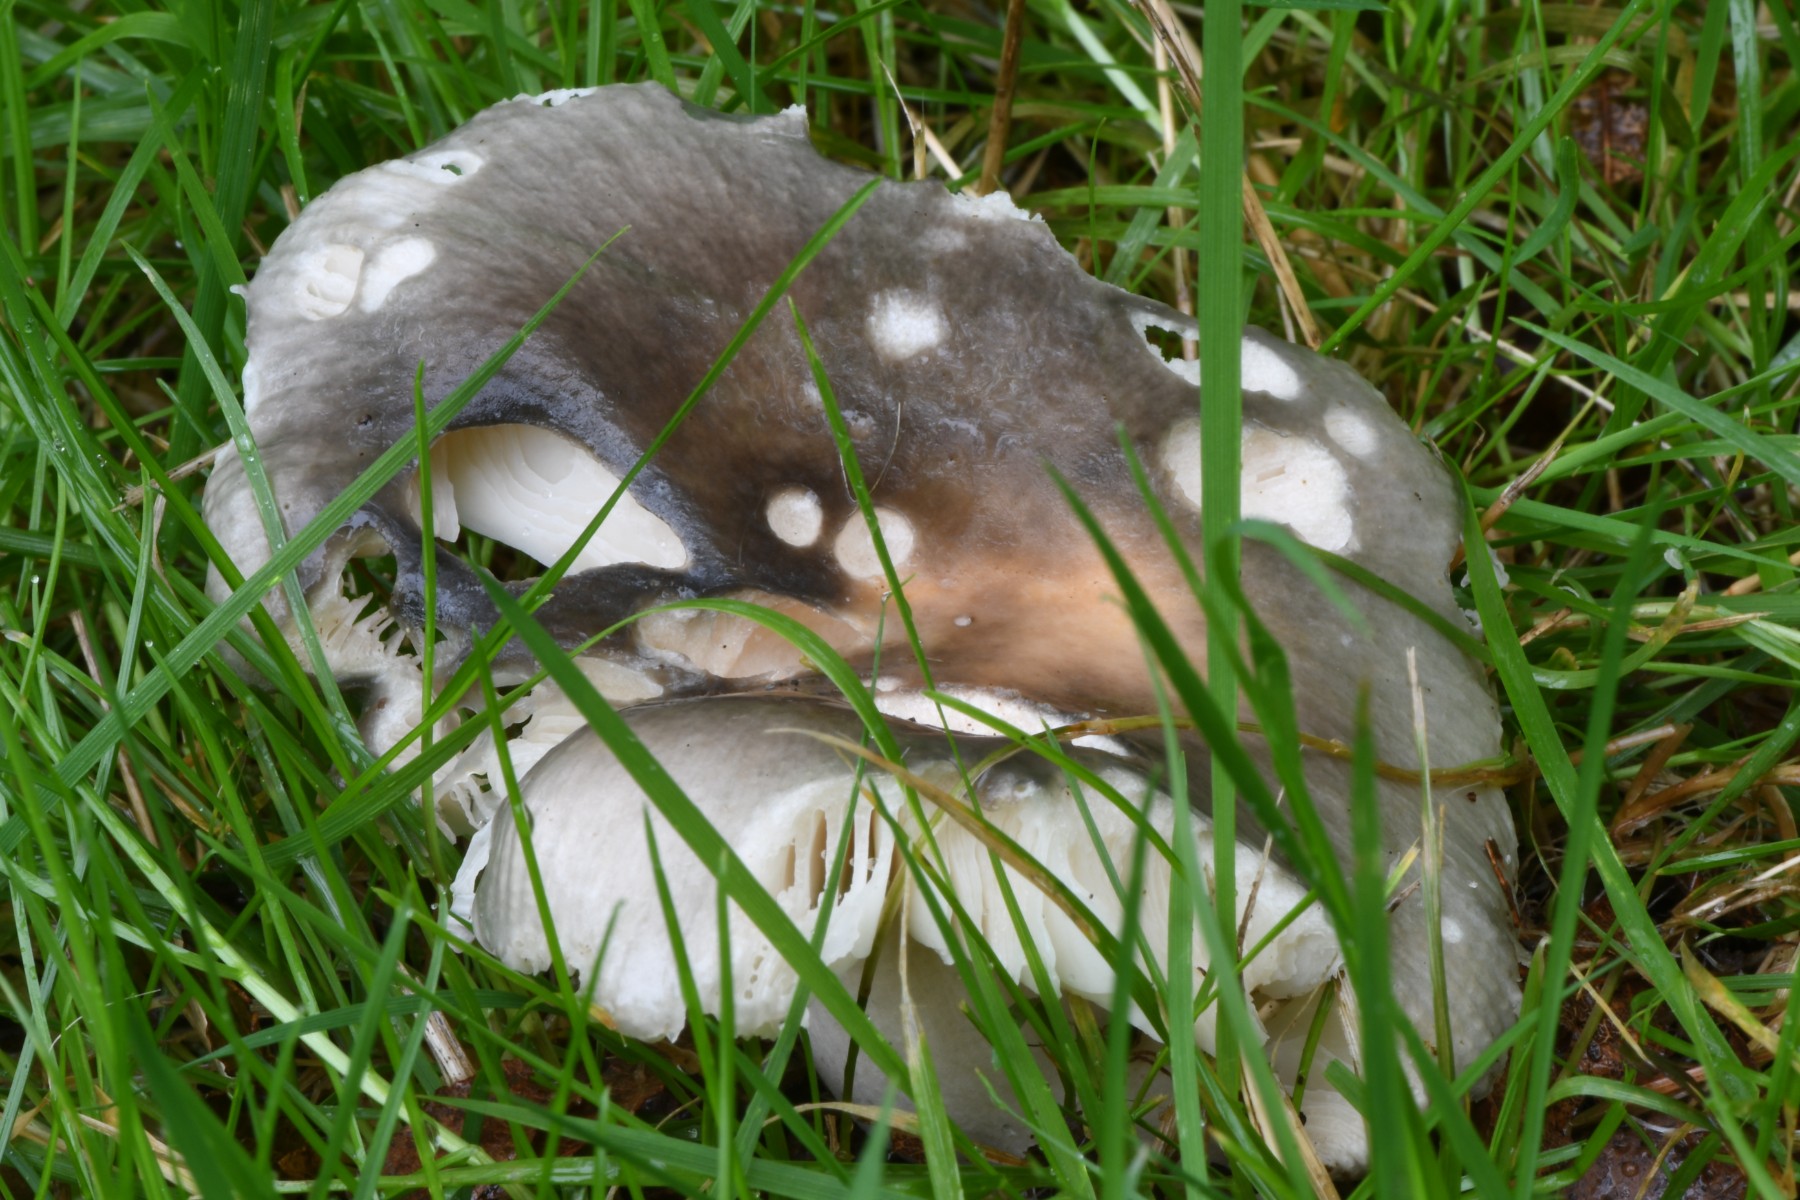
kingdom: Fungi
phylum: Basidiomycota
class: Agaricomycetes
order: Russulales
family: Russulaceae
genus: Russula
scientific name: Russula
